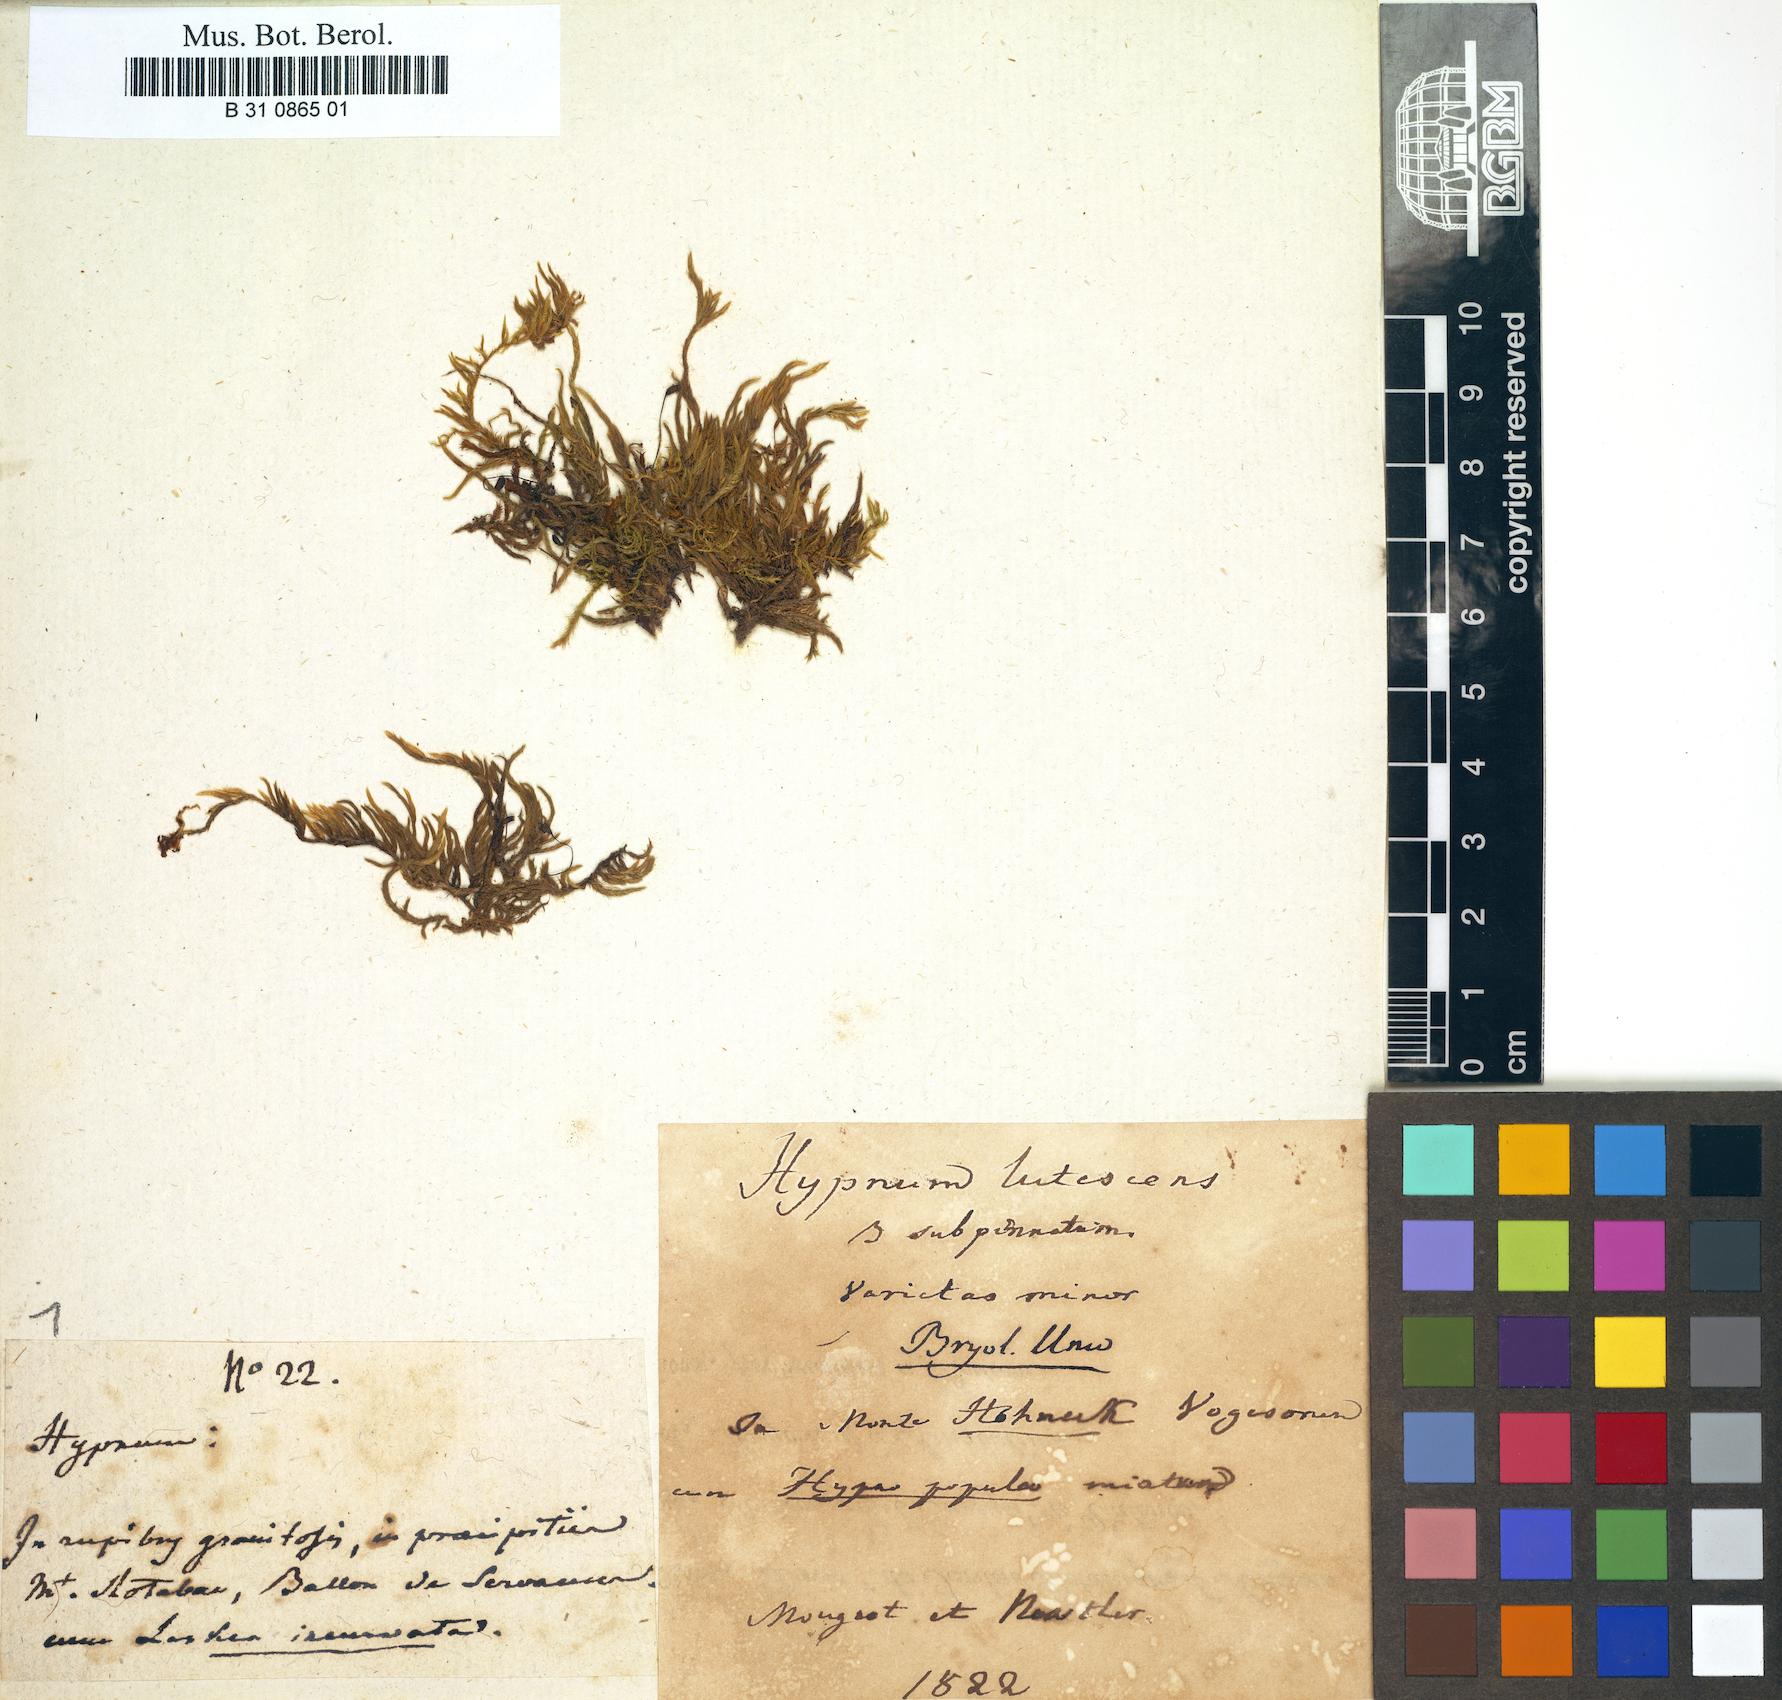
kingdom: Plantae
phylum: Bryophyta
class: Bryopsida
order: Hypnales
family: Brachytheciaceae
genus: Homalothecium
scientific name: Homalothecium lutescens
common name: Yellow feather-moss
